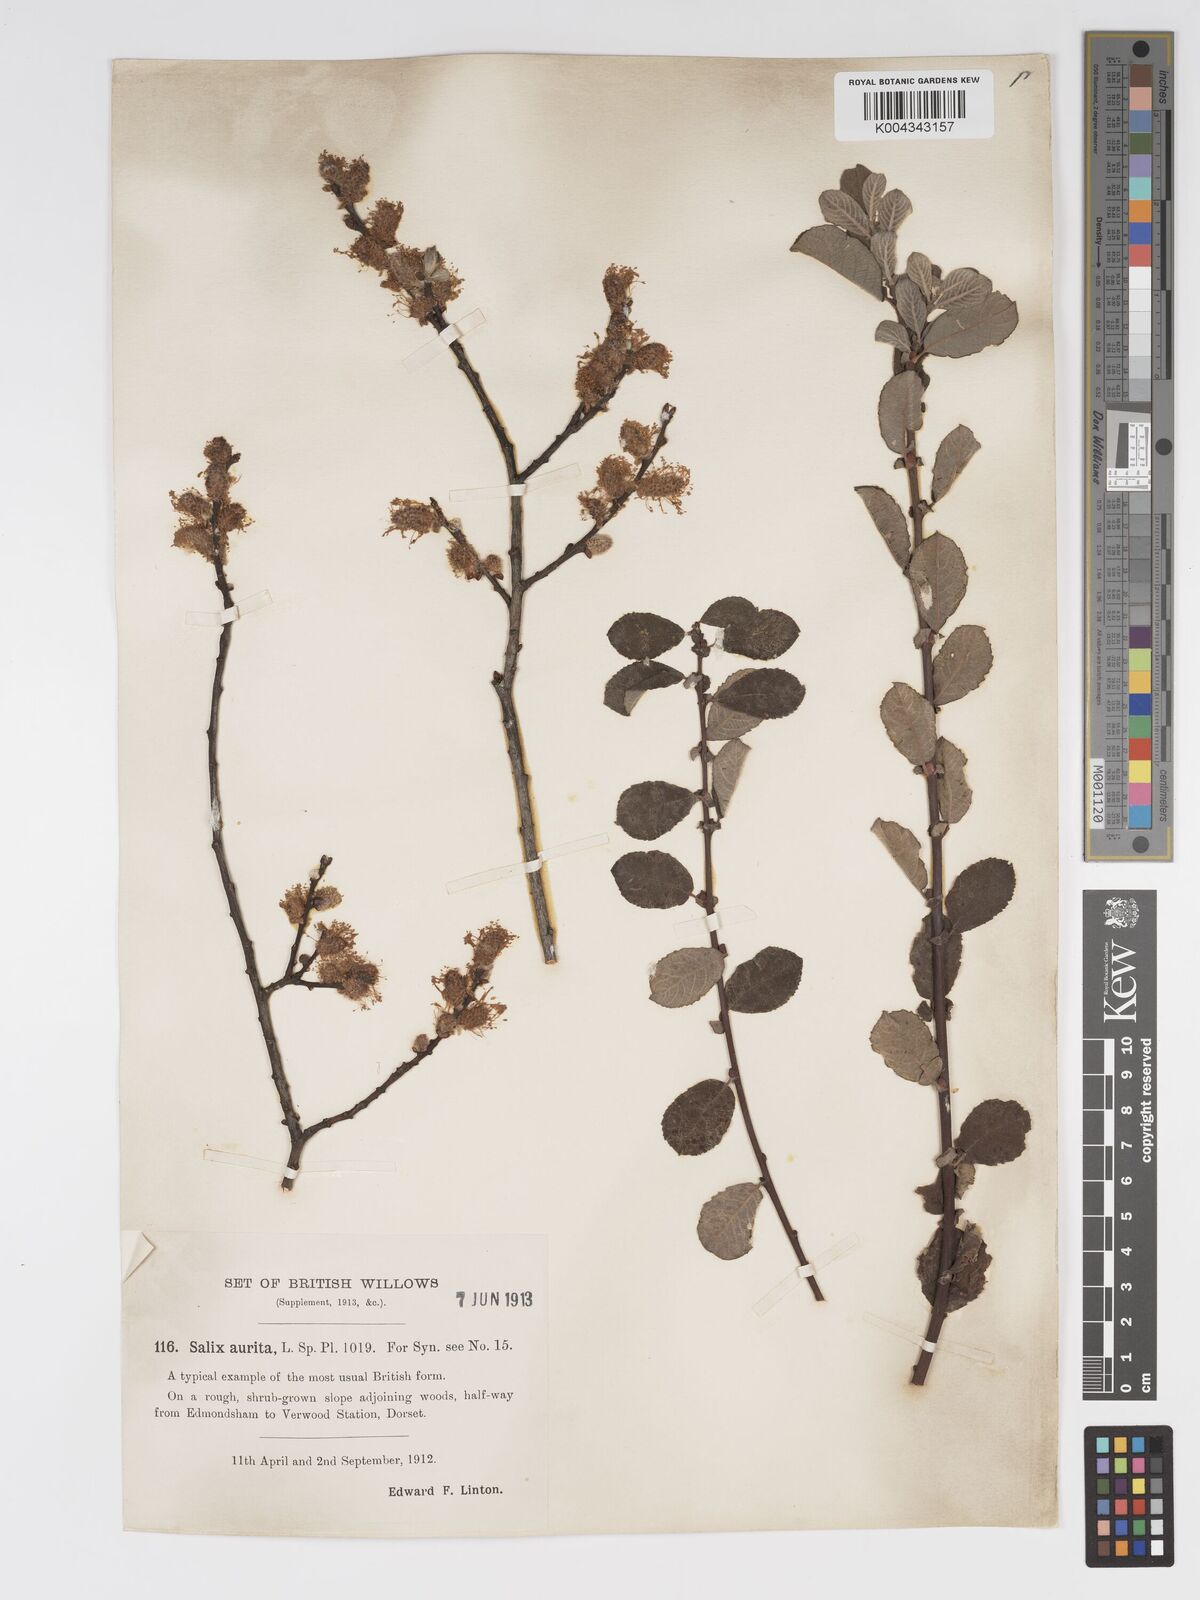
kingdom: Plantae
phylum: Tracheophyta
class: Magnoliopsida
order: Malpighiales
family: Salicaceae
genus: Salix
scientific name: Salix aurita
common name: Eared willow
